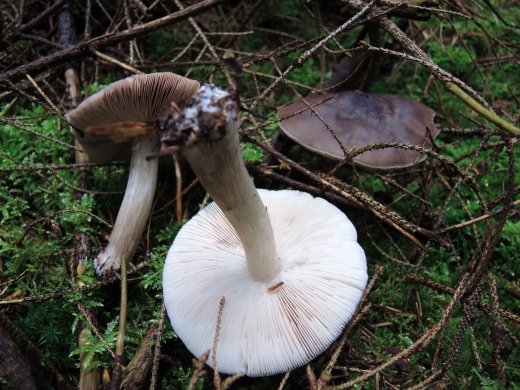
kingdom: Fungi
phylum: Basidiomycota
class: Agaricomycetes
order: Agaricales
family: Pluteaceae
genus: Pluteus
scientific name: Pluteus primus
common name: tidlig skærmhat
